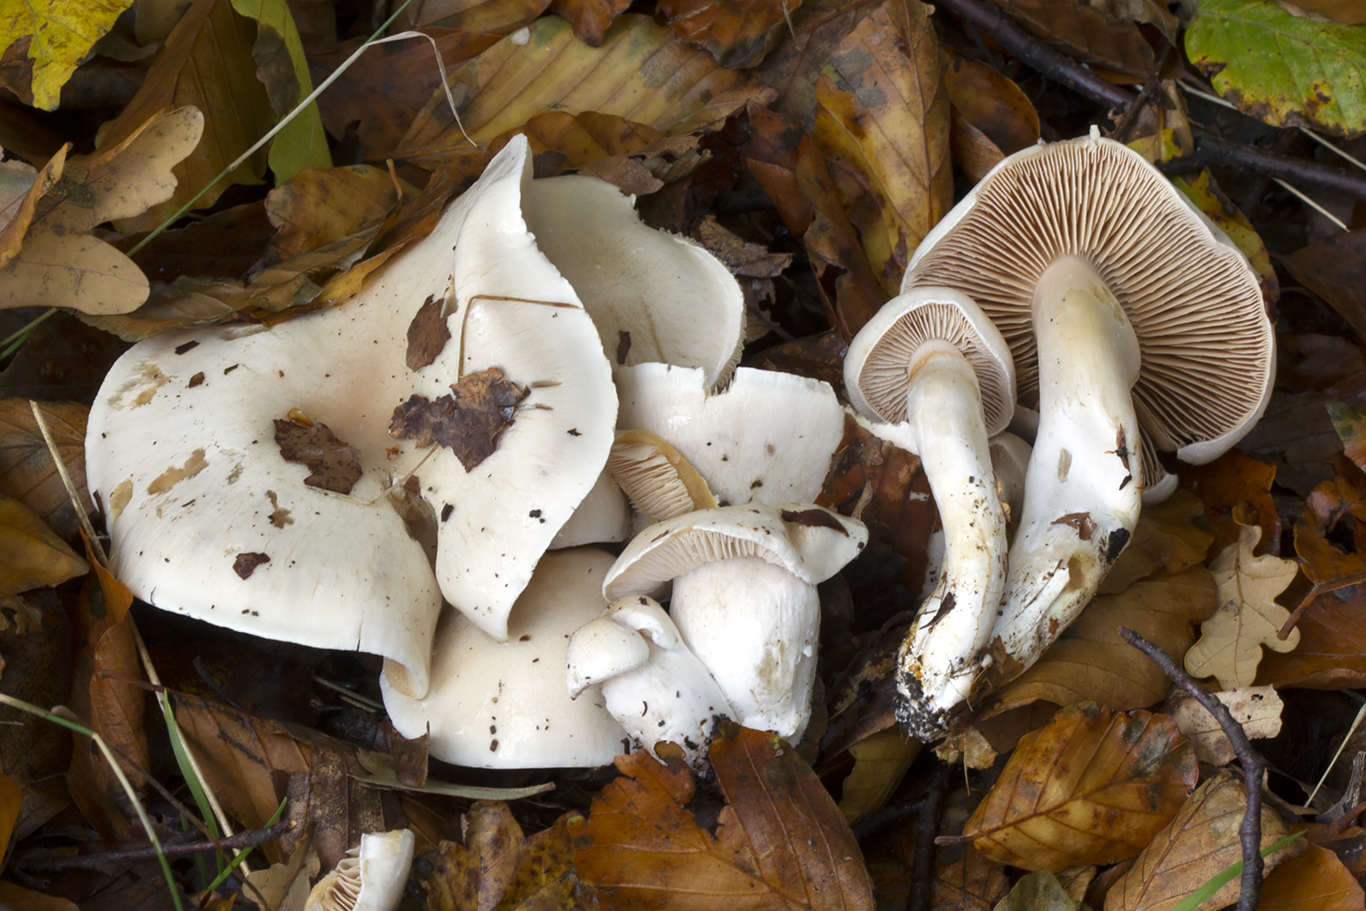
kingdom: Fungi
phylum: Basidiomycota
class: Agaricomycetes
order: Agaricales
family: Cortinariaceae
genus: Thaxterogaster
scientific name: Thaxterogaster barbatus
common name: elfenbens-slørhat
